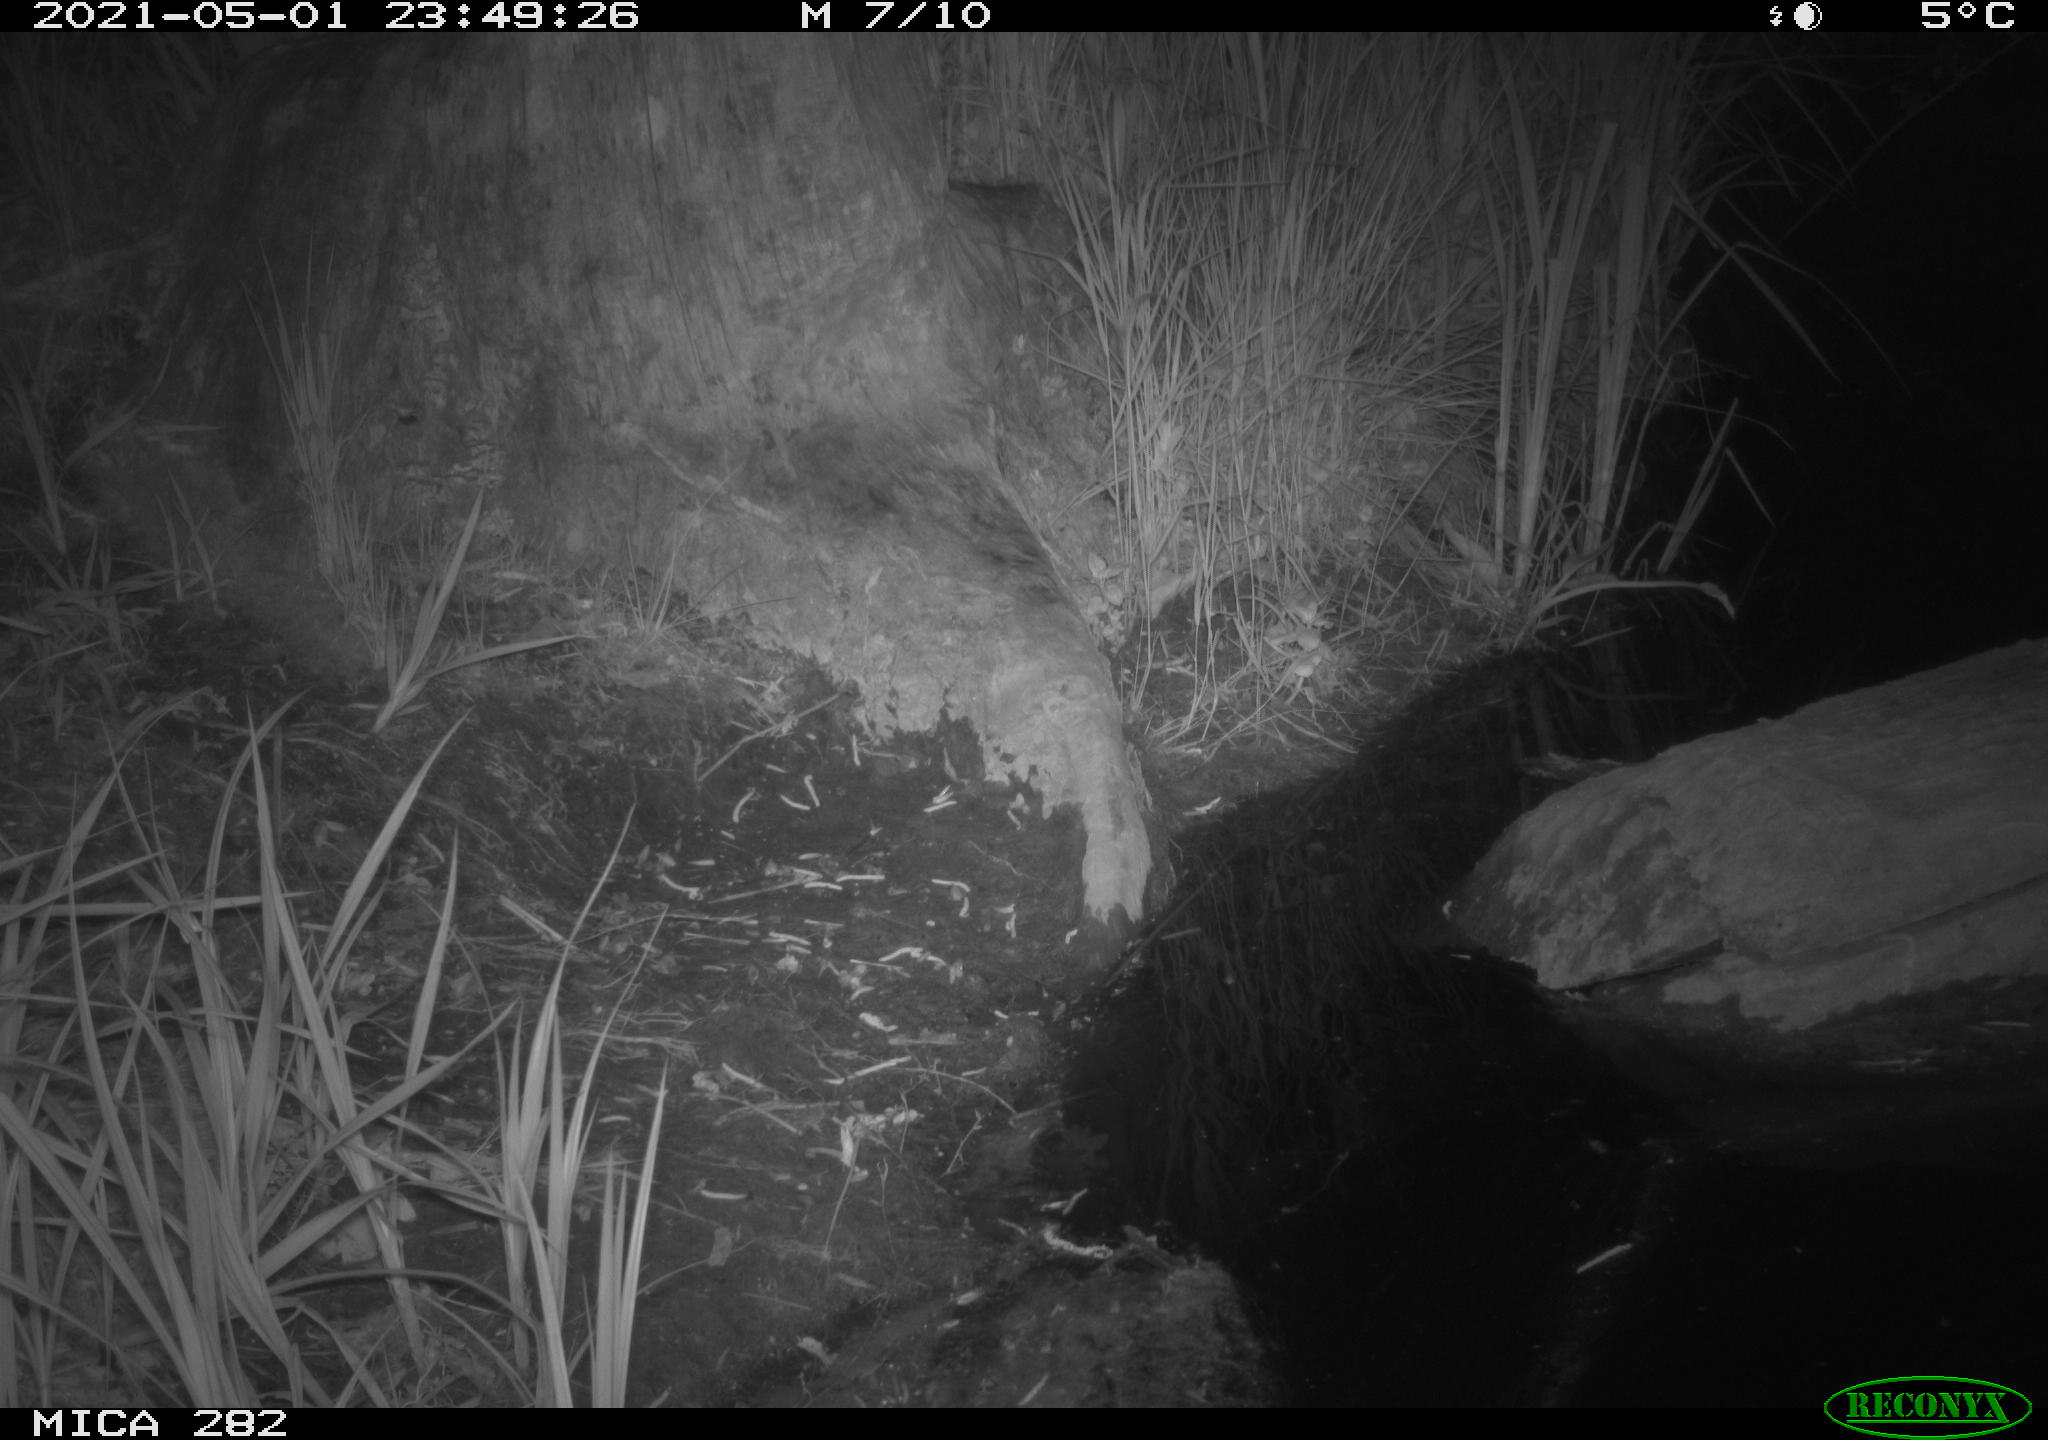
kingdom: Animalia
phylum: Chordata
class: Mammalia
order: Carnivora
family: Canidae
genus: Vulpes
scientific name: Vulpes vulpes
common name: Red fox
